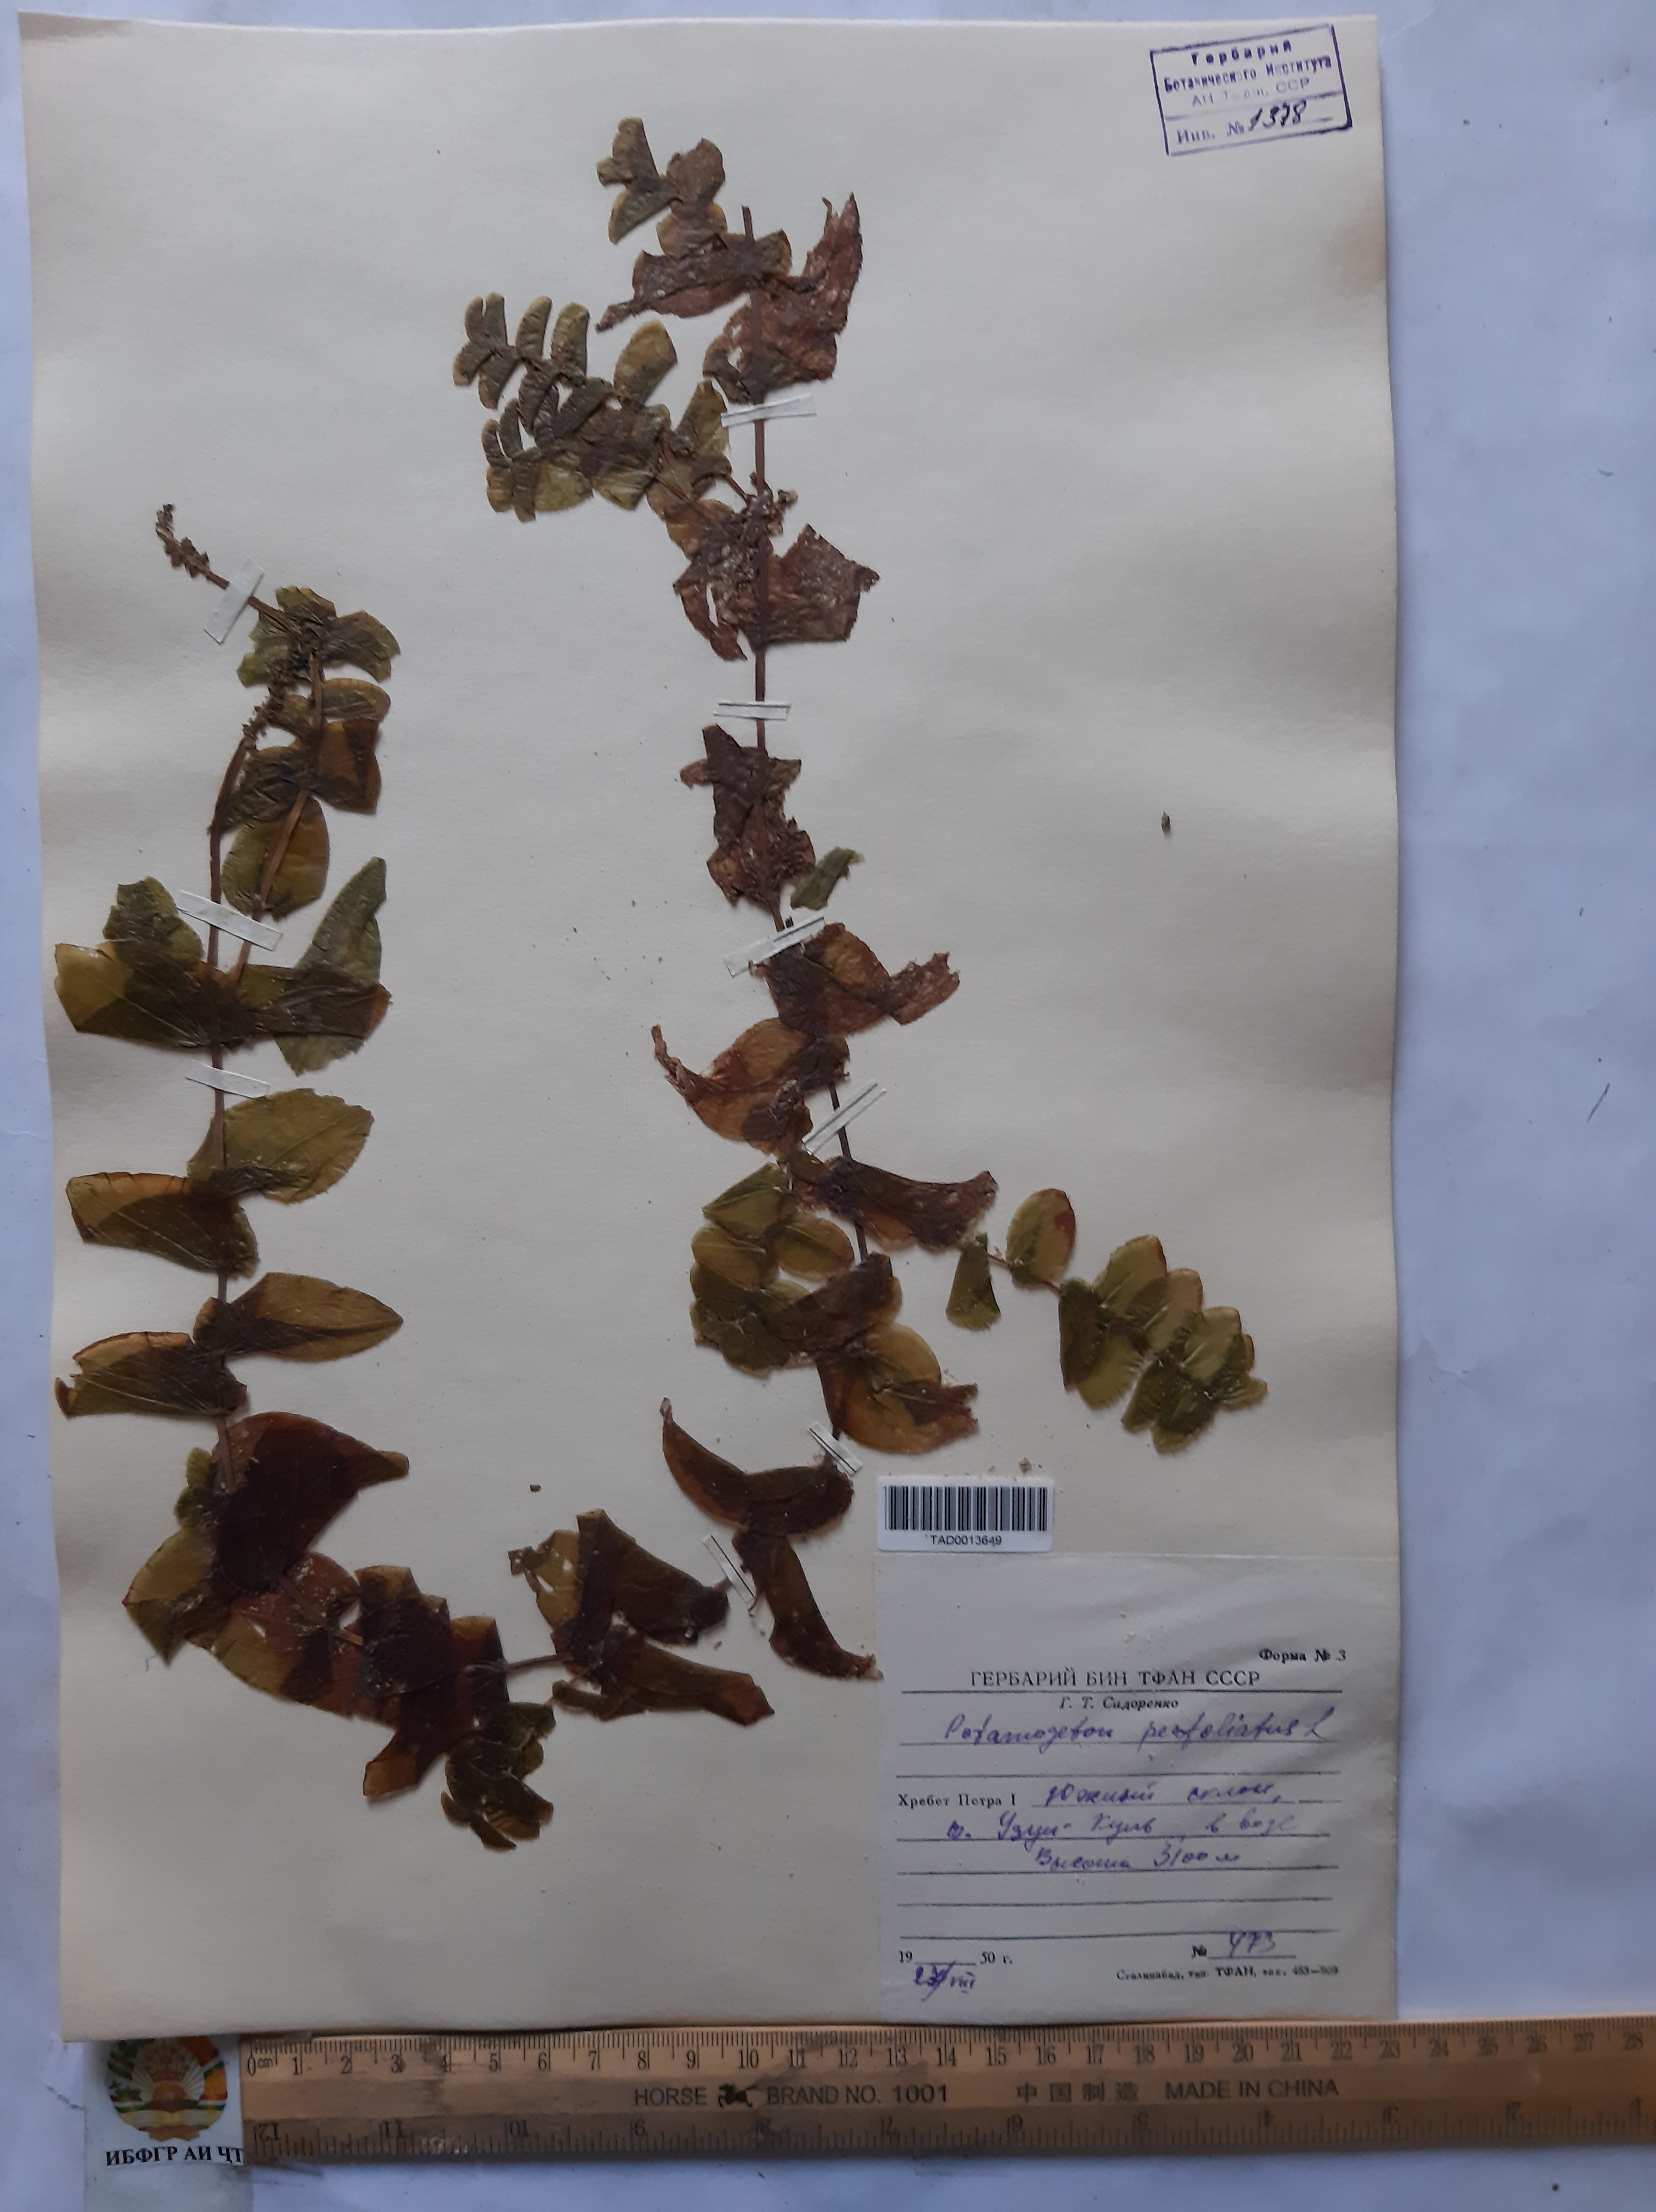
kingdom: Plantae
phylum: Tracheophyta
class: Liliopsida
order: Alismatales
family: Potamogetonaceae
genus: Potamogeton
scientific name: Potamogeton perfoliatus
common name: Perfoliate pondweed
